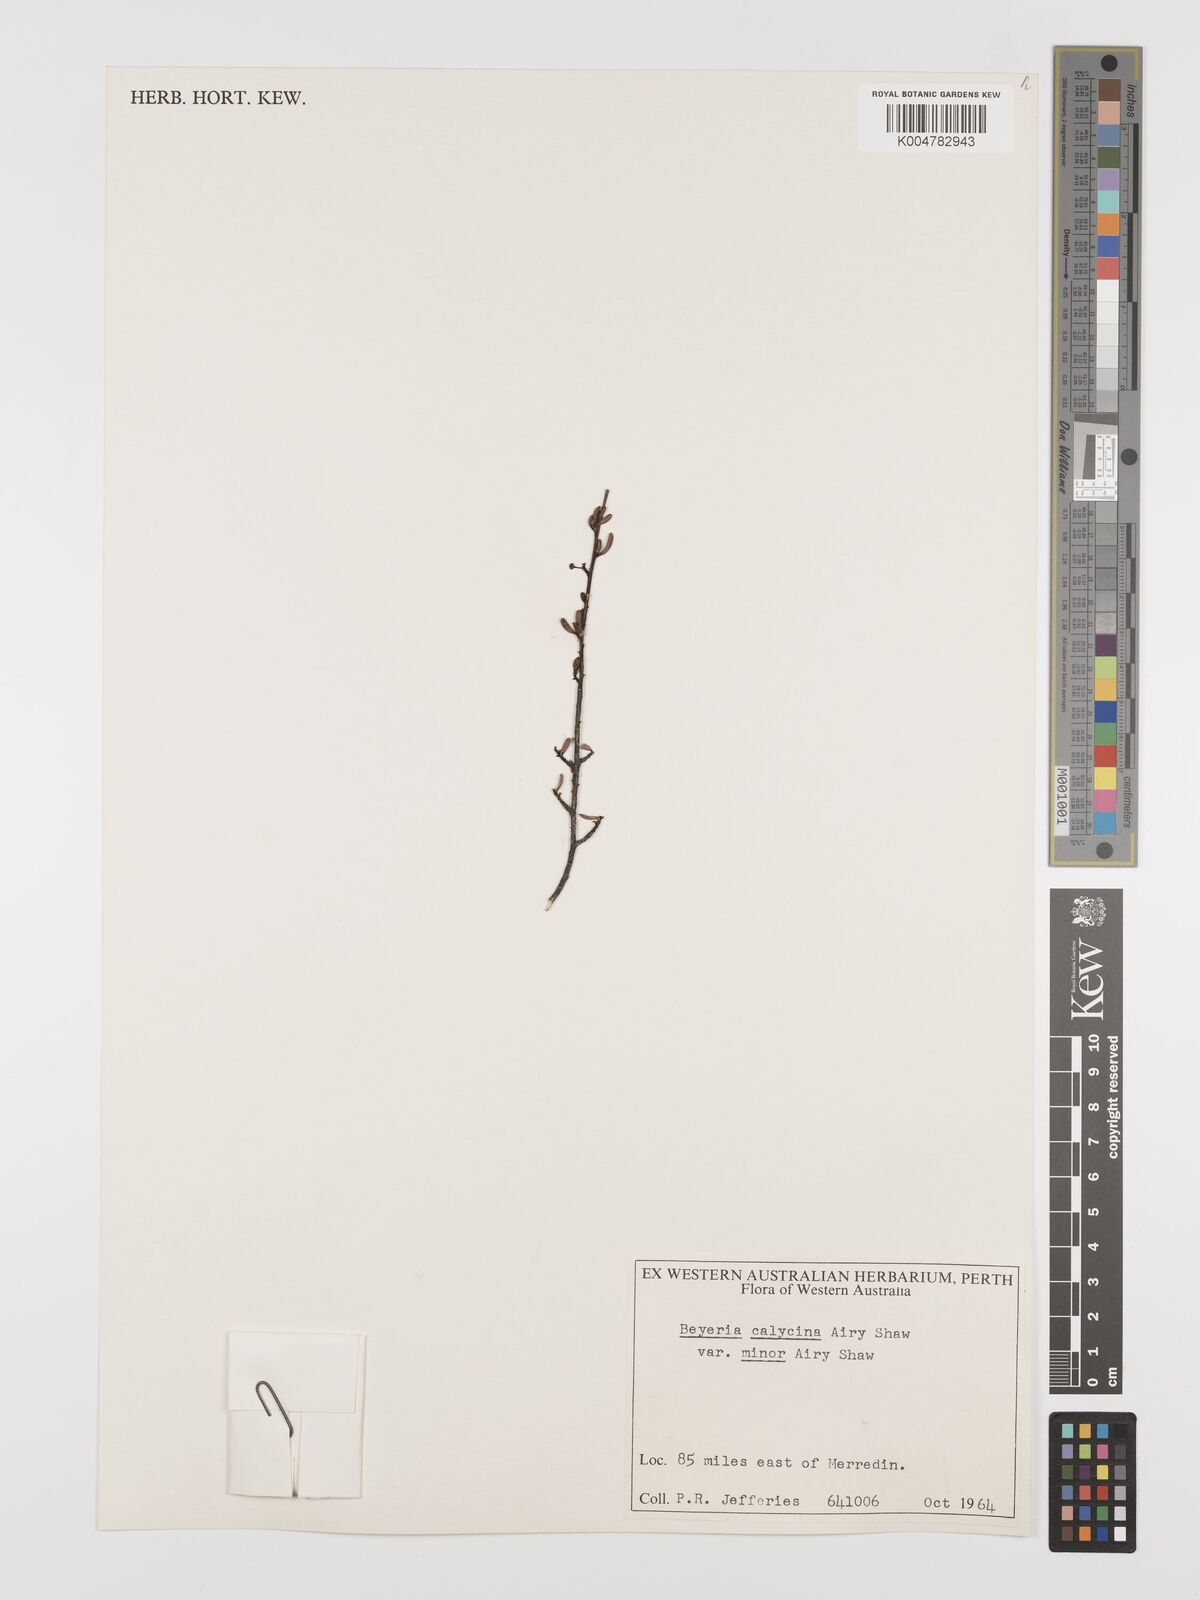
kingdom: Plantae
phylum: Tracheophyta
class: Magnoliopsida
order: Malpighiales
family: Euphorbiaceae
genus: Beyeria
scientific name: Beyeria calycina
